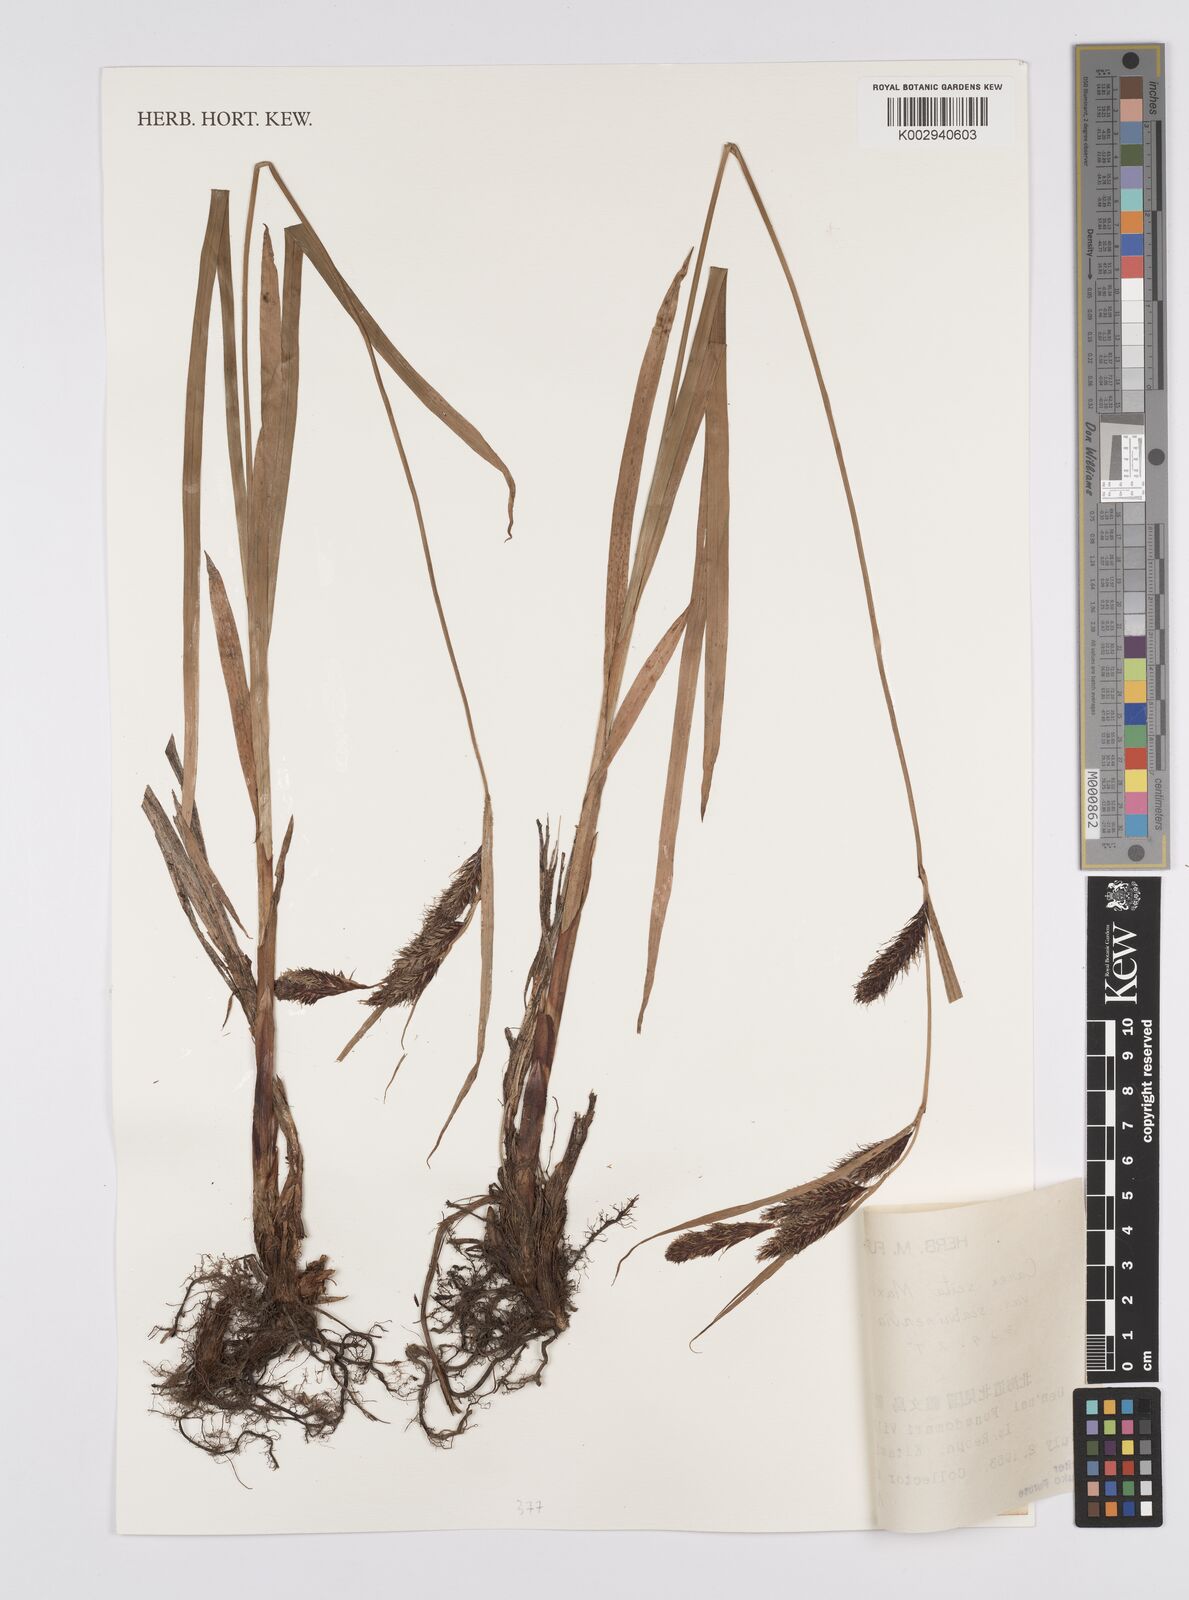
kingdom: Plantae
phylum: Tracheophyta
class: Liliopsida
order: Poales
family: Cyperaceae
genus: Carex
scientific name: Carex scita
